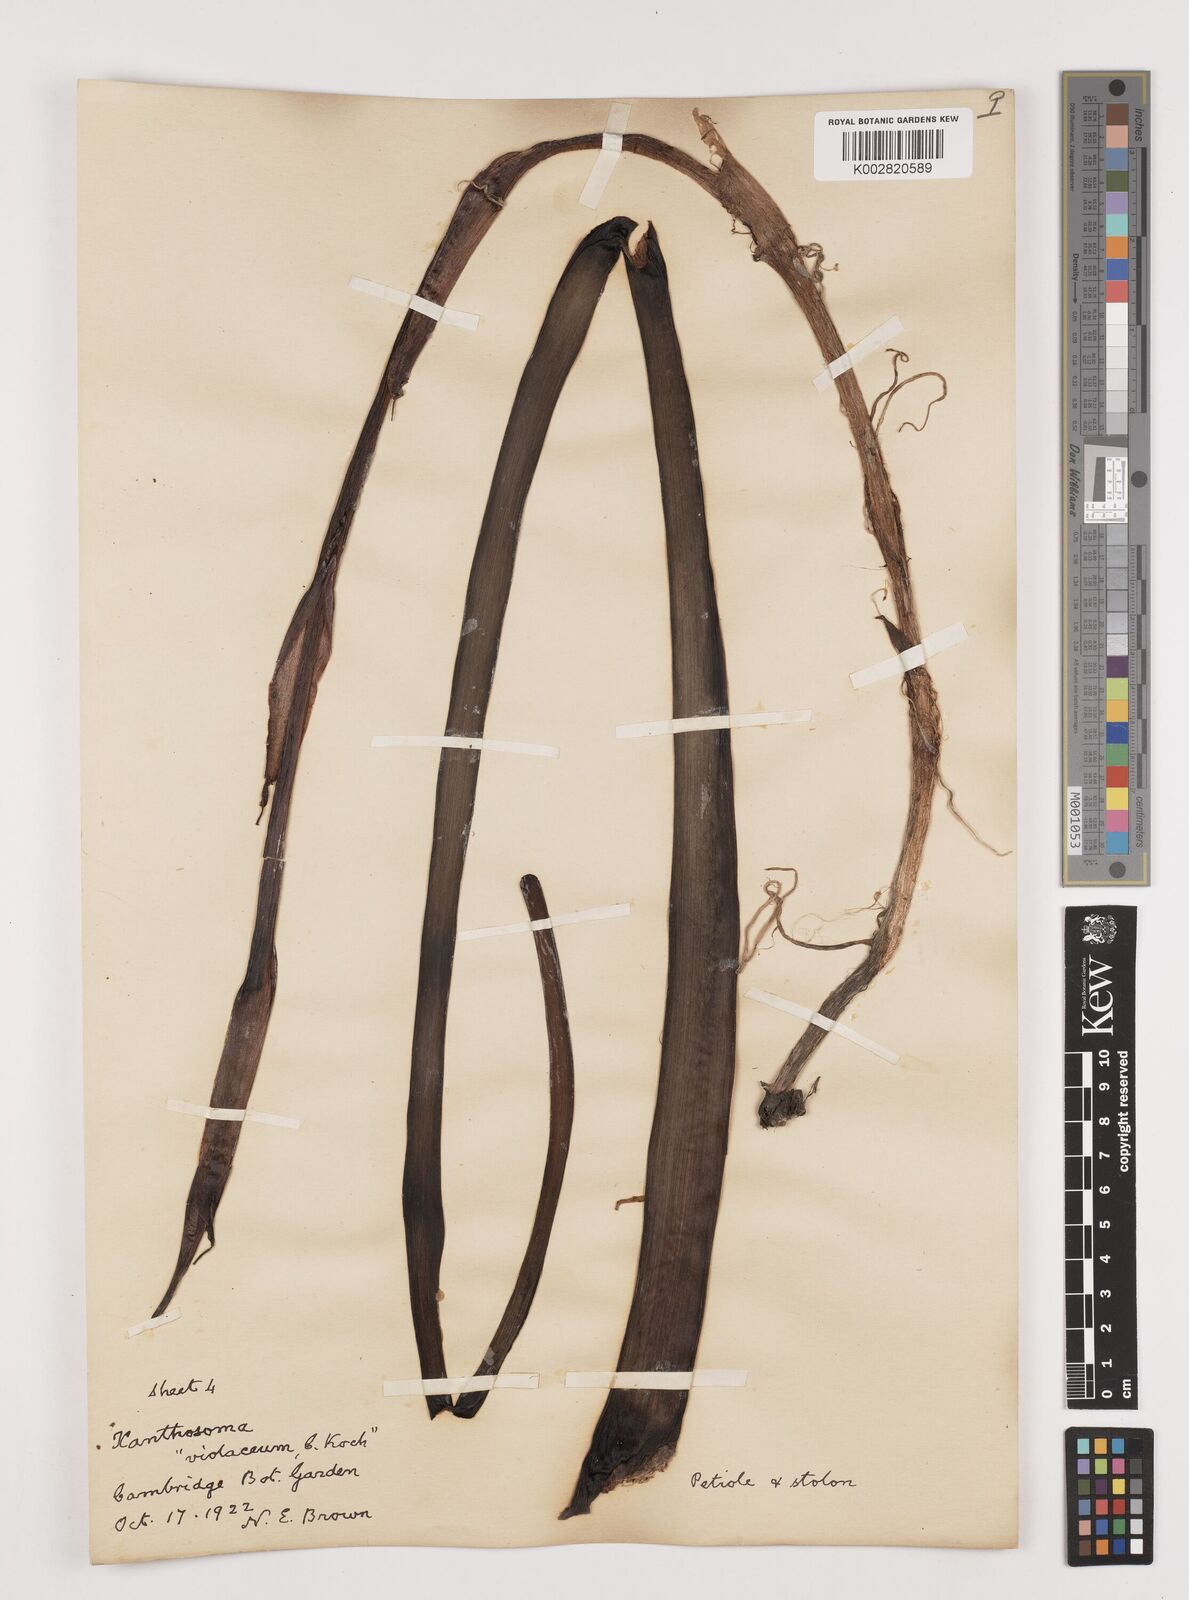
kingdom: Plantae
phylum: Tracheophyta
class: Liliopsida
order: Alismatales
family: Araceae
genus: Colocasia
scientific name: Colocasia esculenta
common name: Taro
